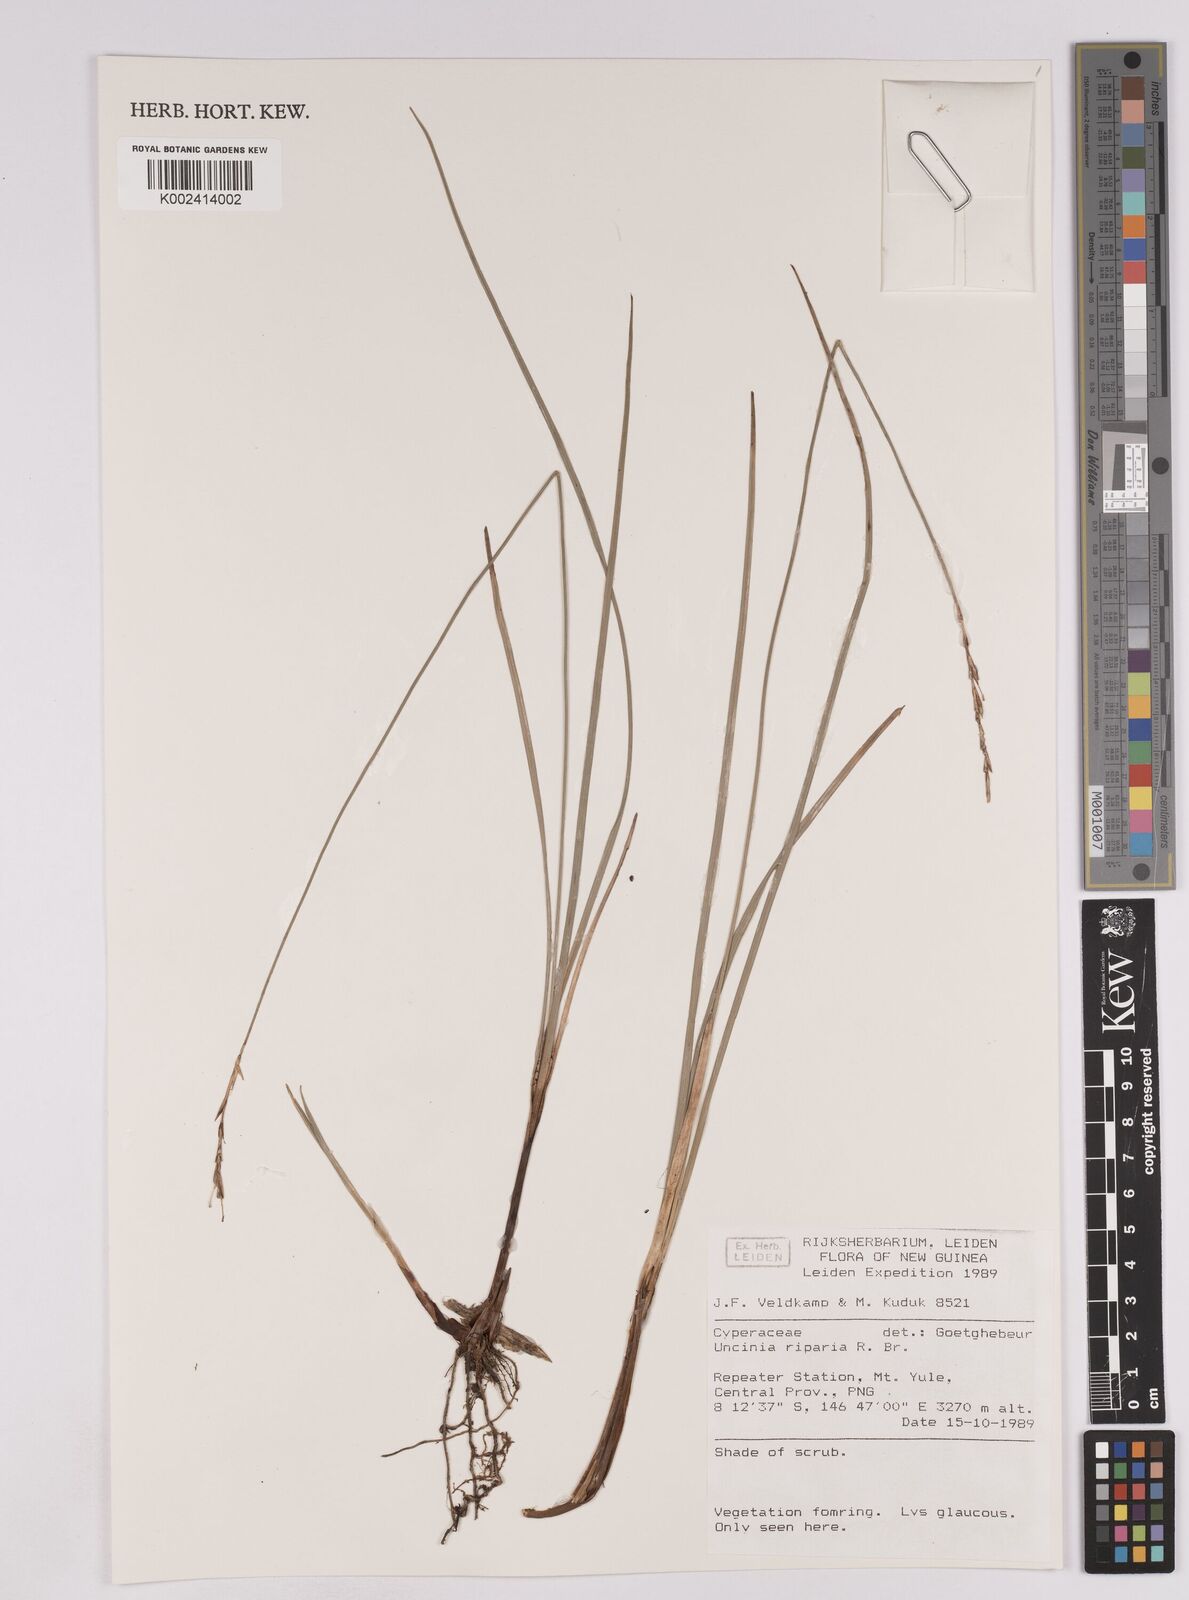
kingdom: Plantae
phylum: Tracheophyta
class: Liliopsida
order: Poales
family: Cyperaceae
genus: Carex
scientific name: Carex sclerophylla
